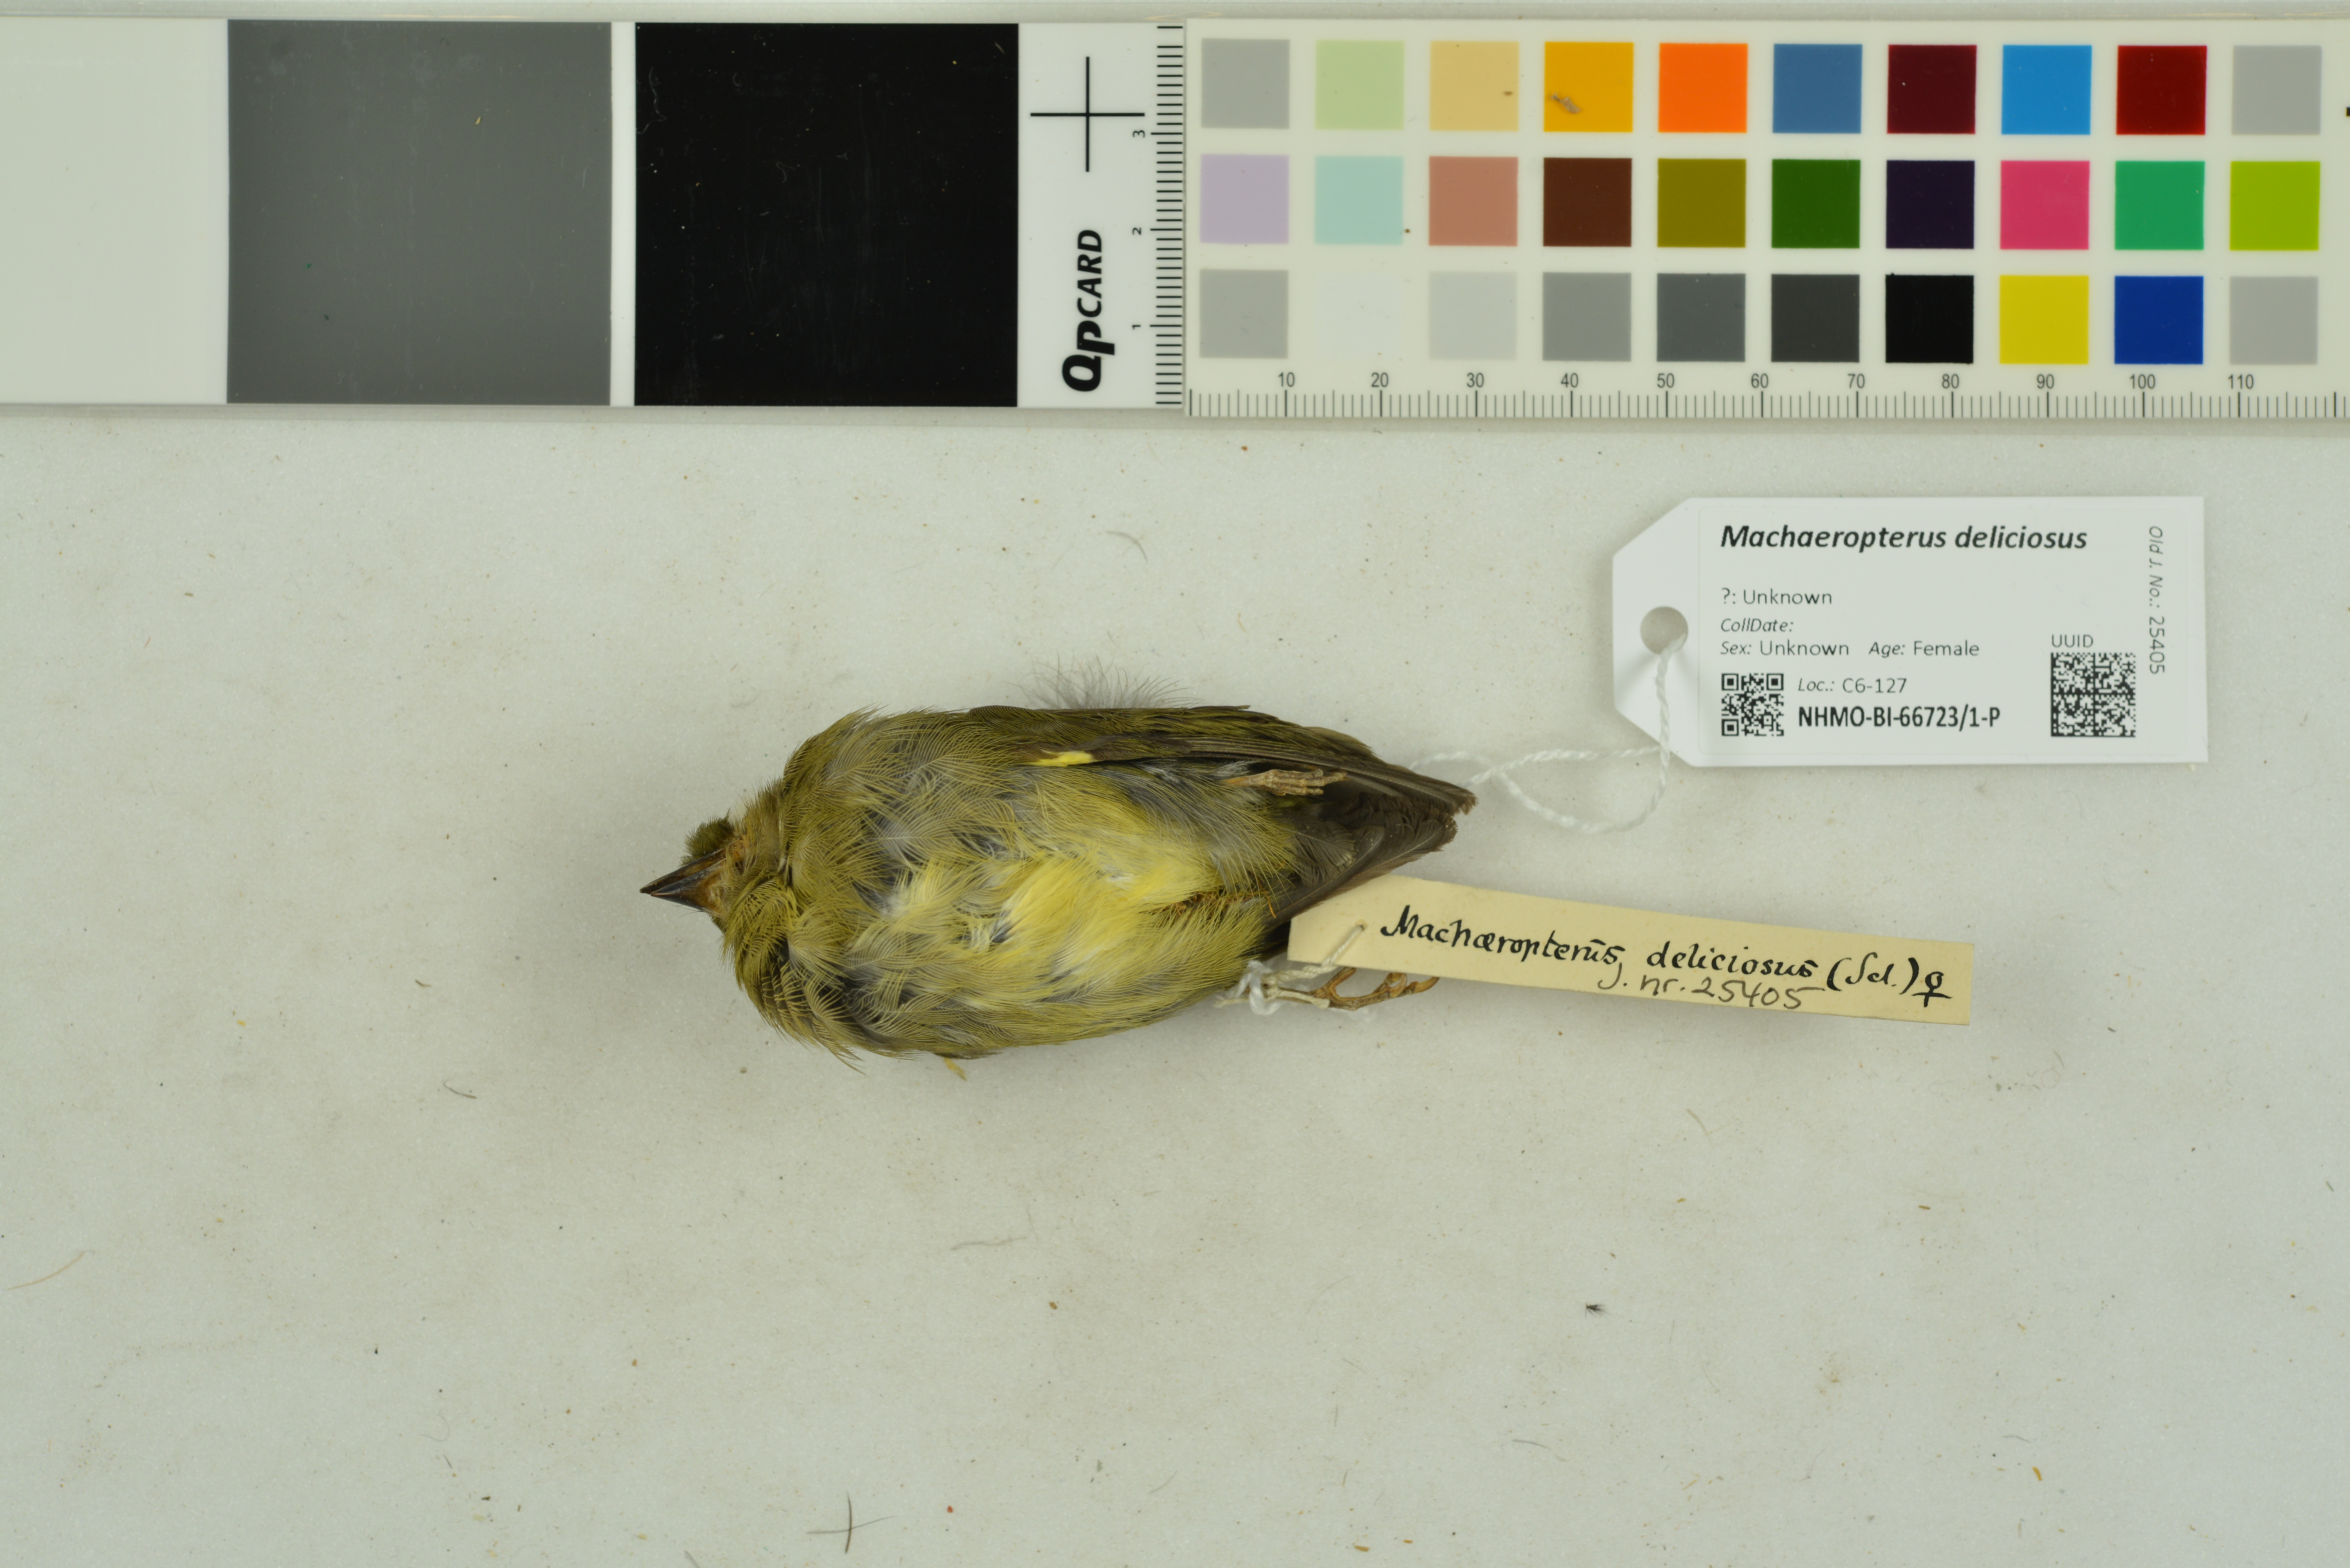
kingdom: Animalia
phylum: Chordata
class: Aves
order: Passeriformes
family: Pipridae
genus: Machaeropterus
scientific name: Machaeropterus deliciosus
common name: Club-winged manakin
